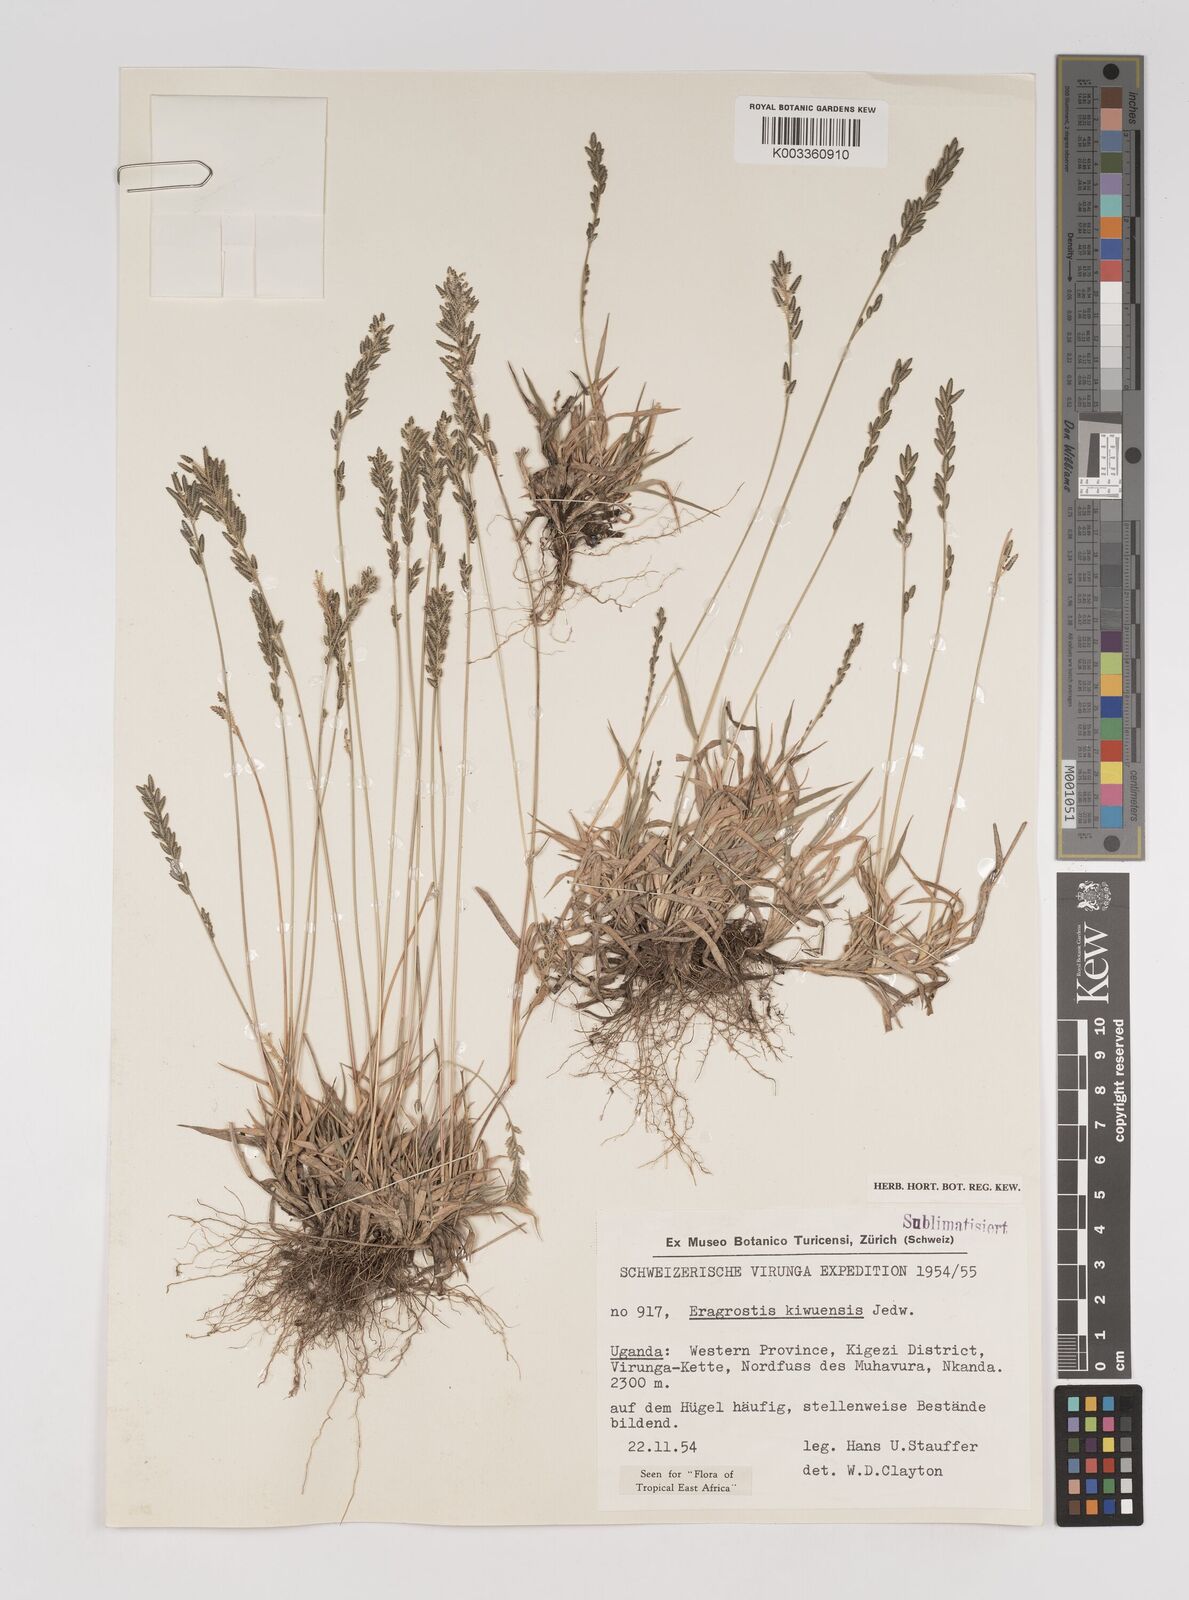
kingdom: Plantae
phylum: Tracheophyta
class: Liliopsida
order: Poales
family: Poaceae
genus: Eragrostis
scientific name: Eragrostis schweinfurthii
